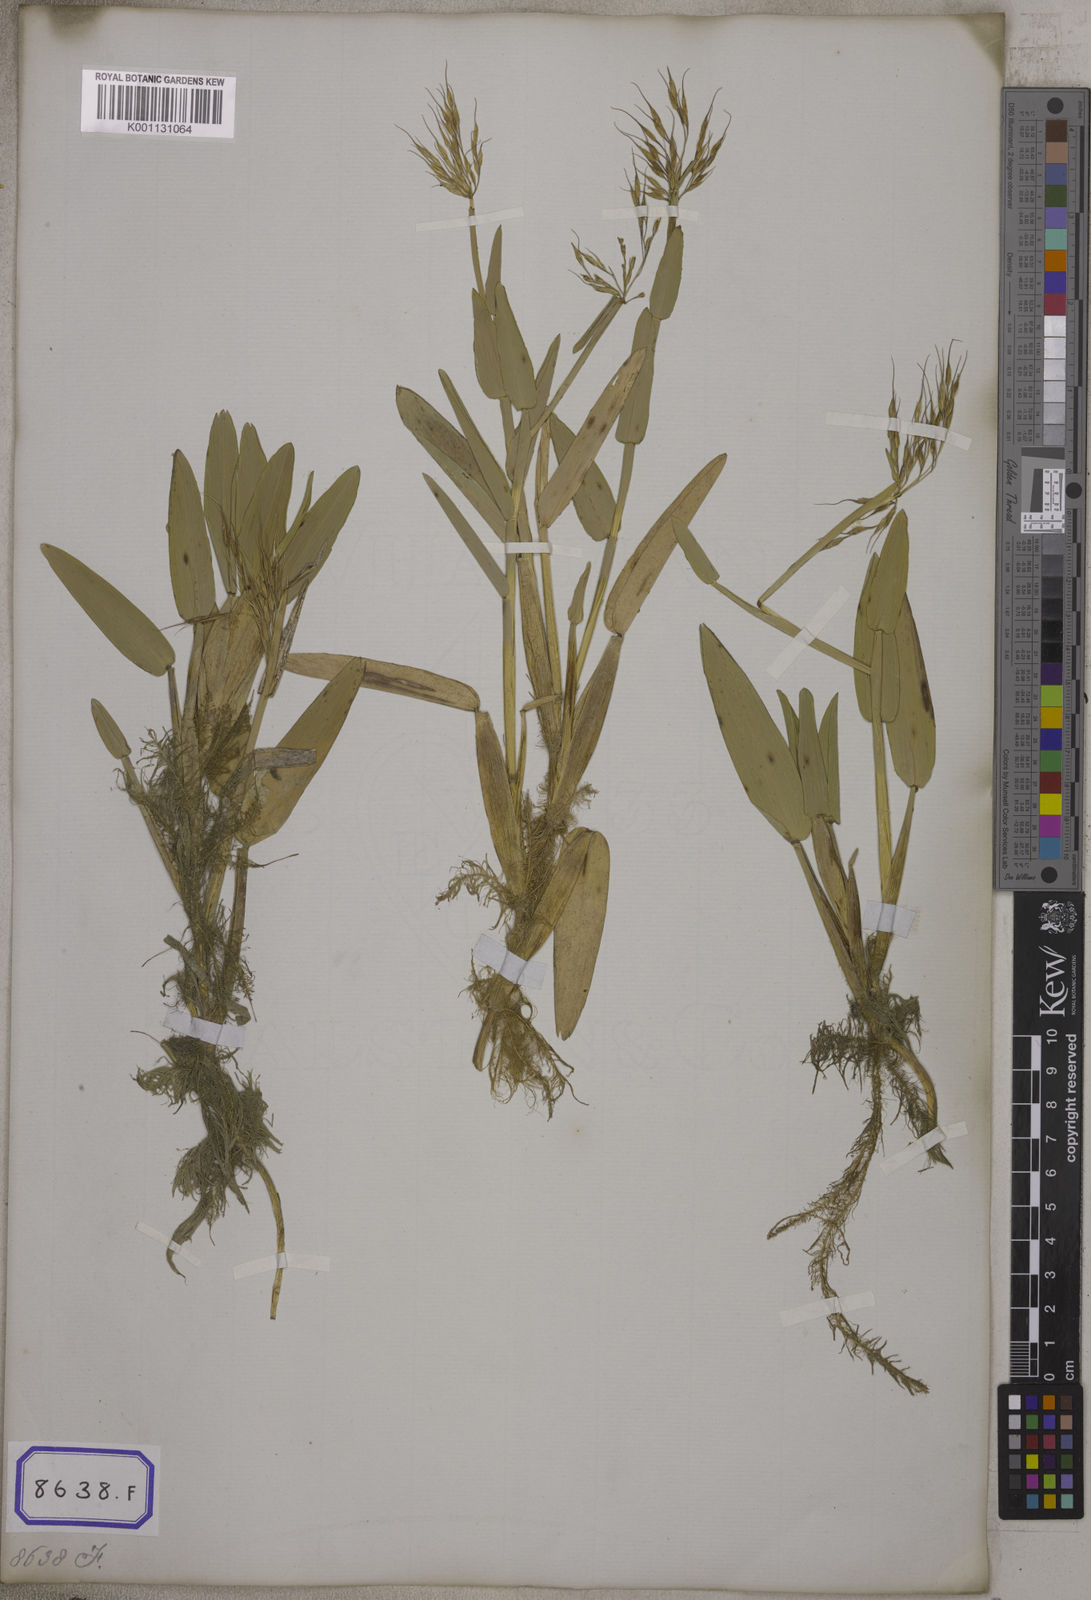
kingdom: Plantae
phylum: Tracheophyta
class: Liliopsida
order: Poales
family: Poaceae
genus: Hygroryza
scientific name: Hygroryza
